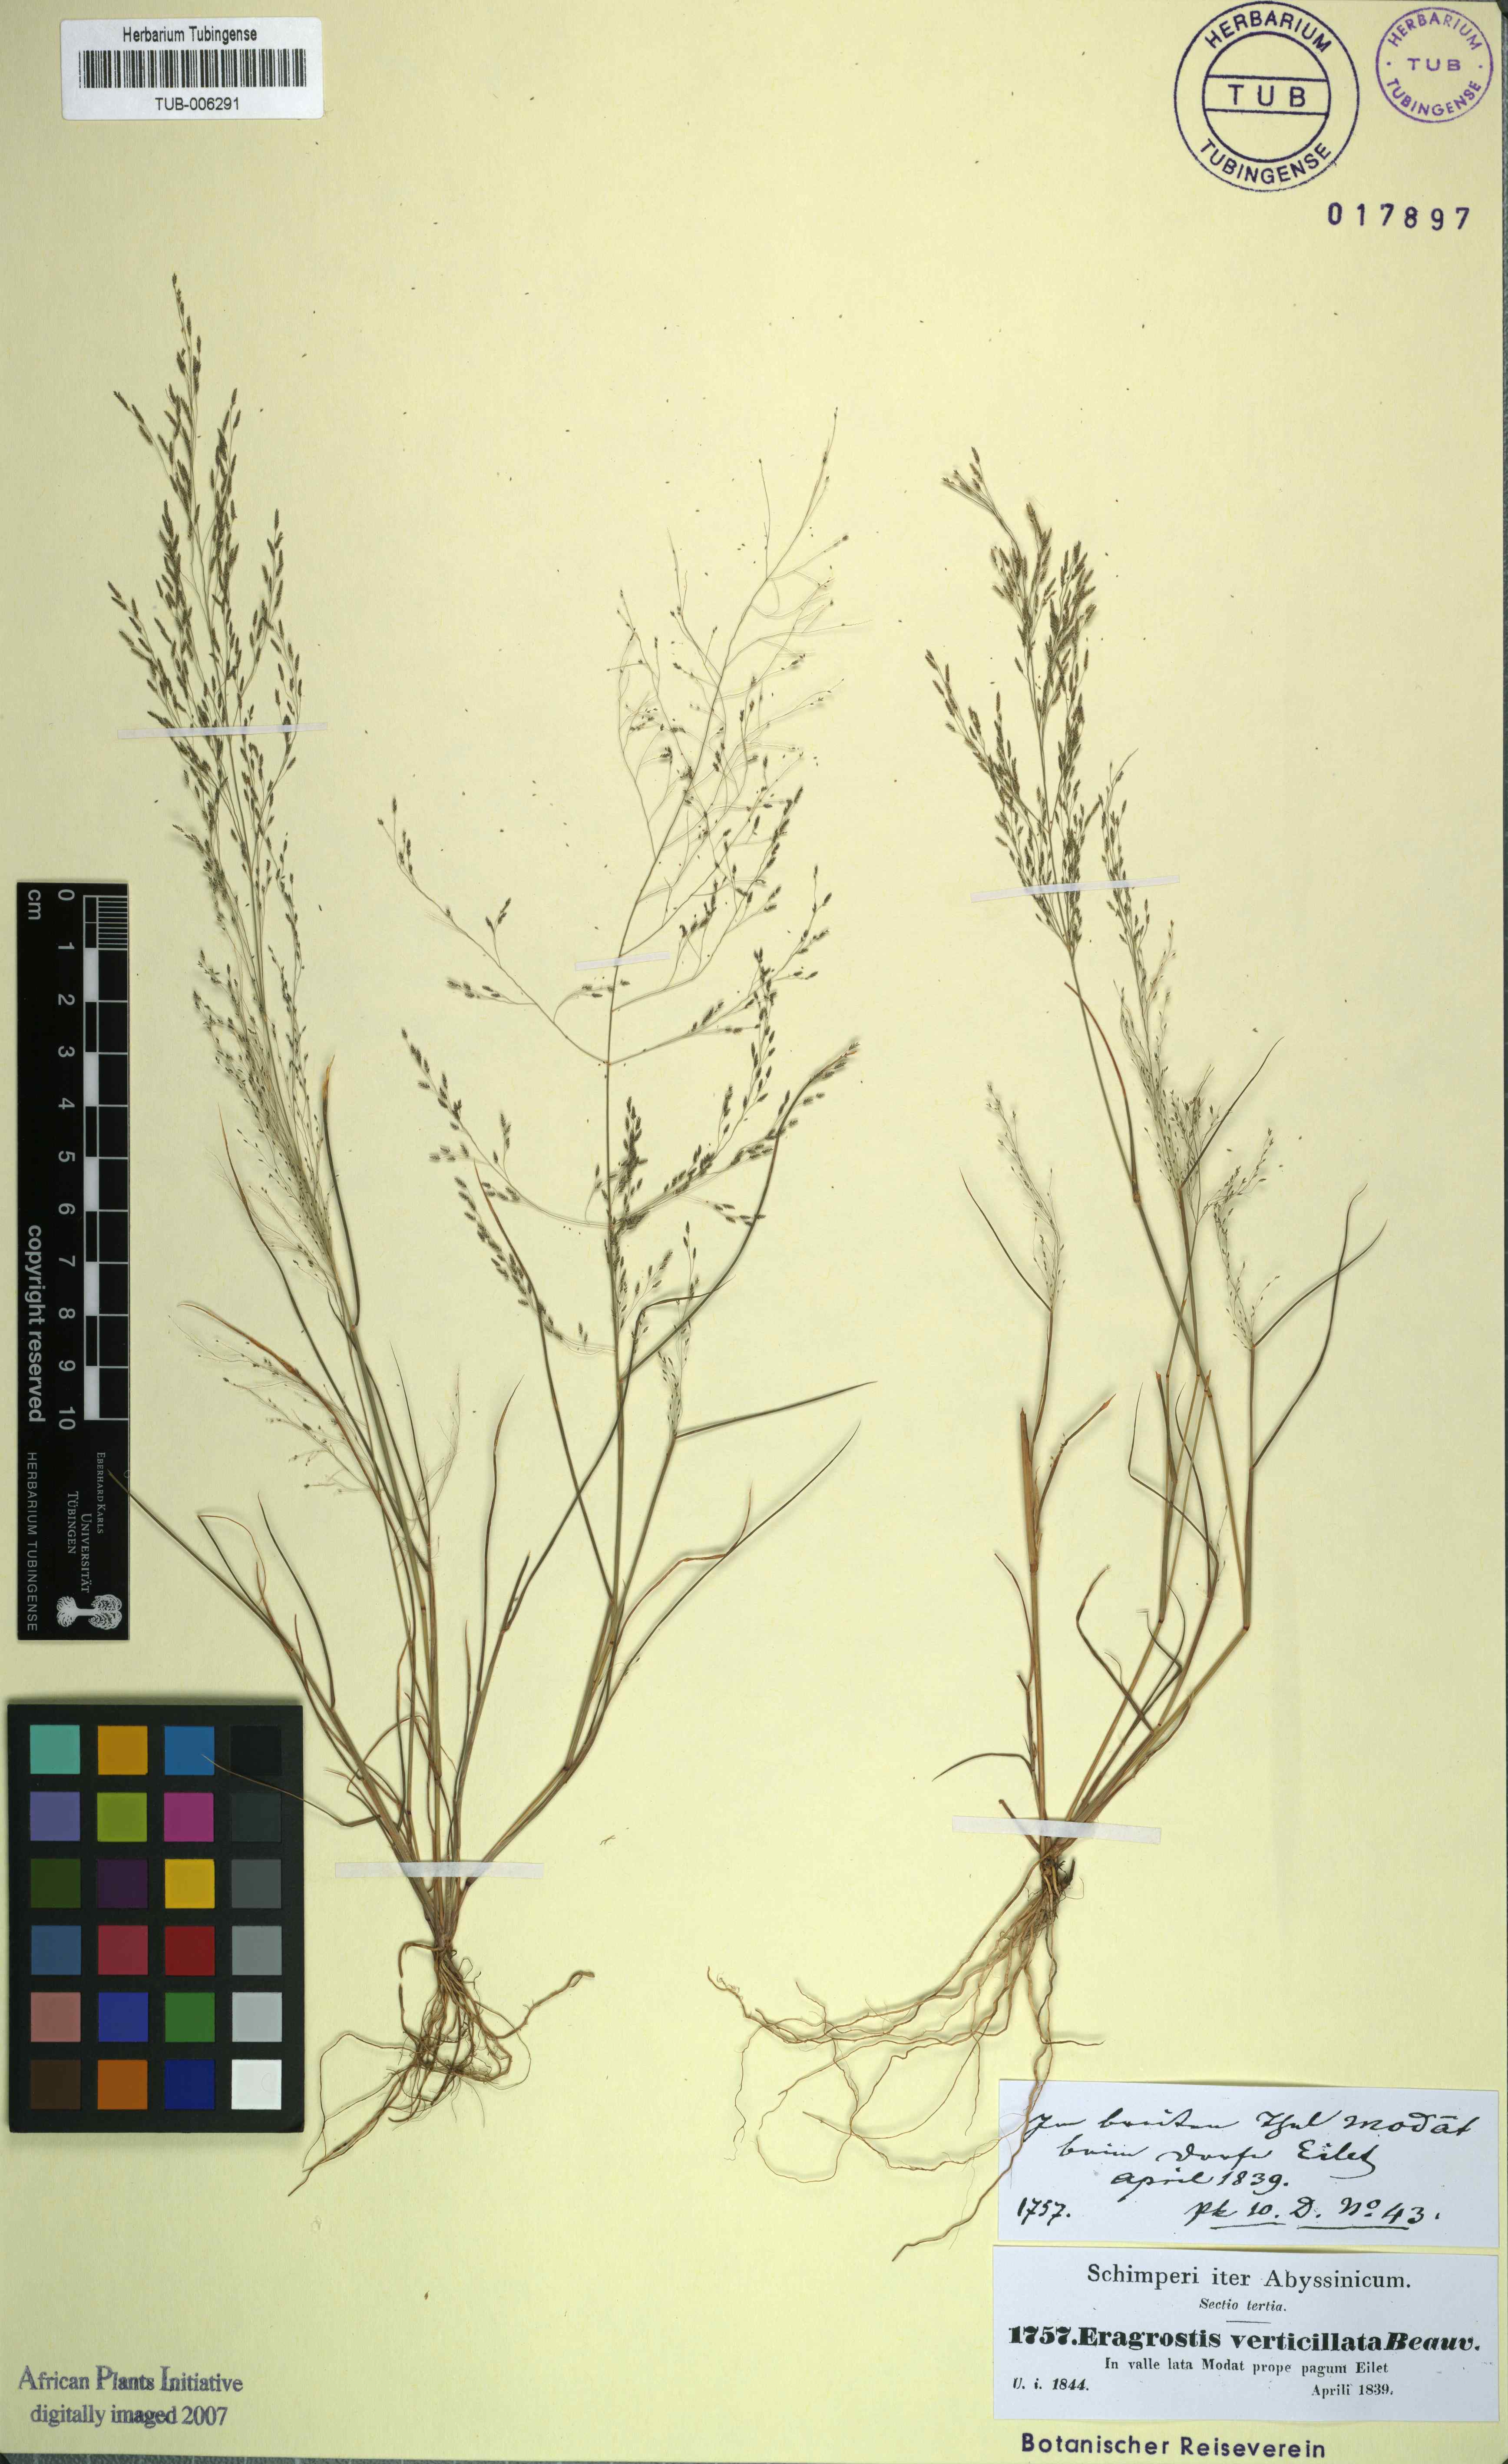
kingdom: Plantae
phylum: Tracheophyta
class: Liliopsida
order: Poales
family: Poaceae
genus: Eragrostis
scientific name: Eragrostis pilosa
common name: Indian lovegrass
